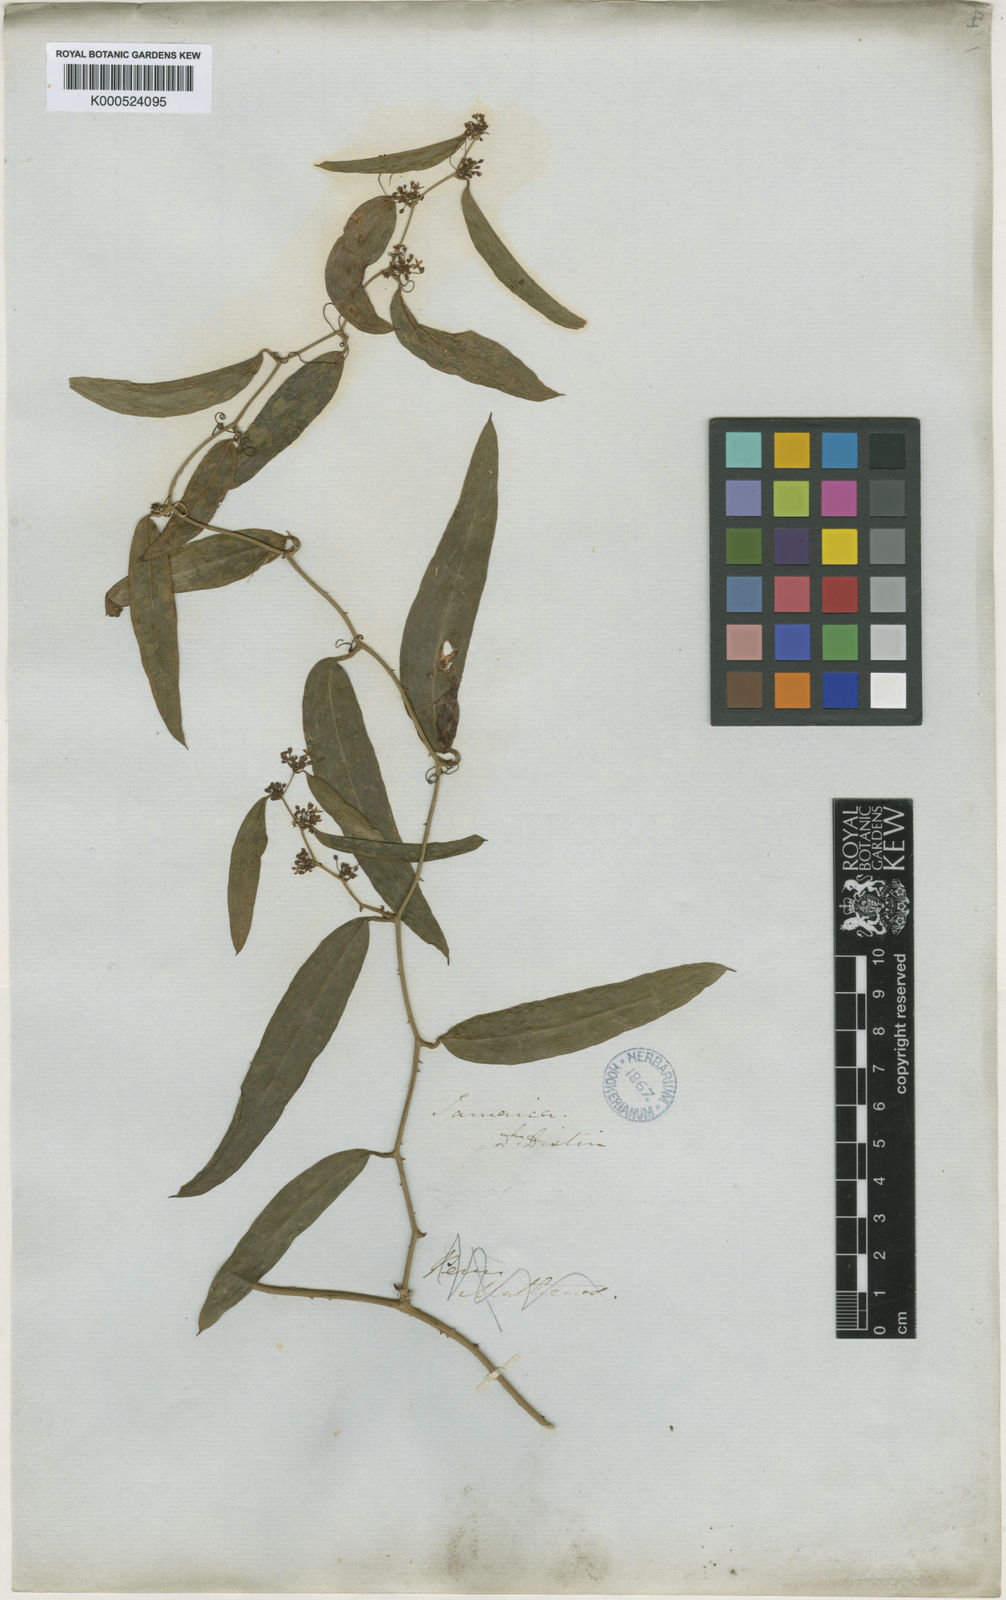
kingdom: Plantae
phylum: Tracheophyta
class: Liliopsida
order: Liliales
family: Smilacaceae
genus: Smilax
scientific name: Smilax domingensis
